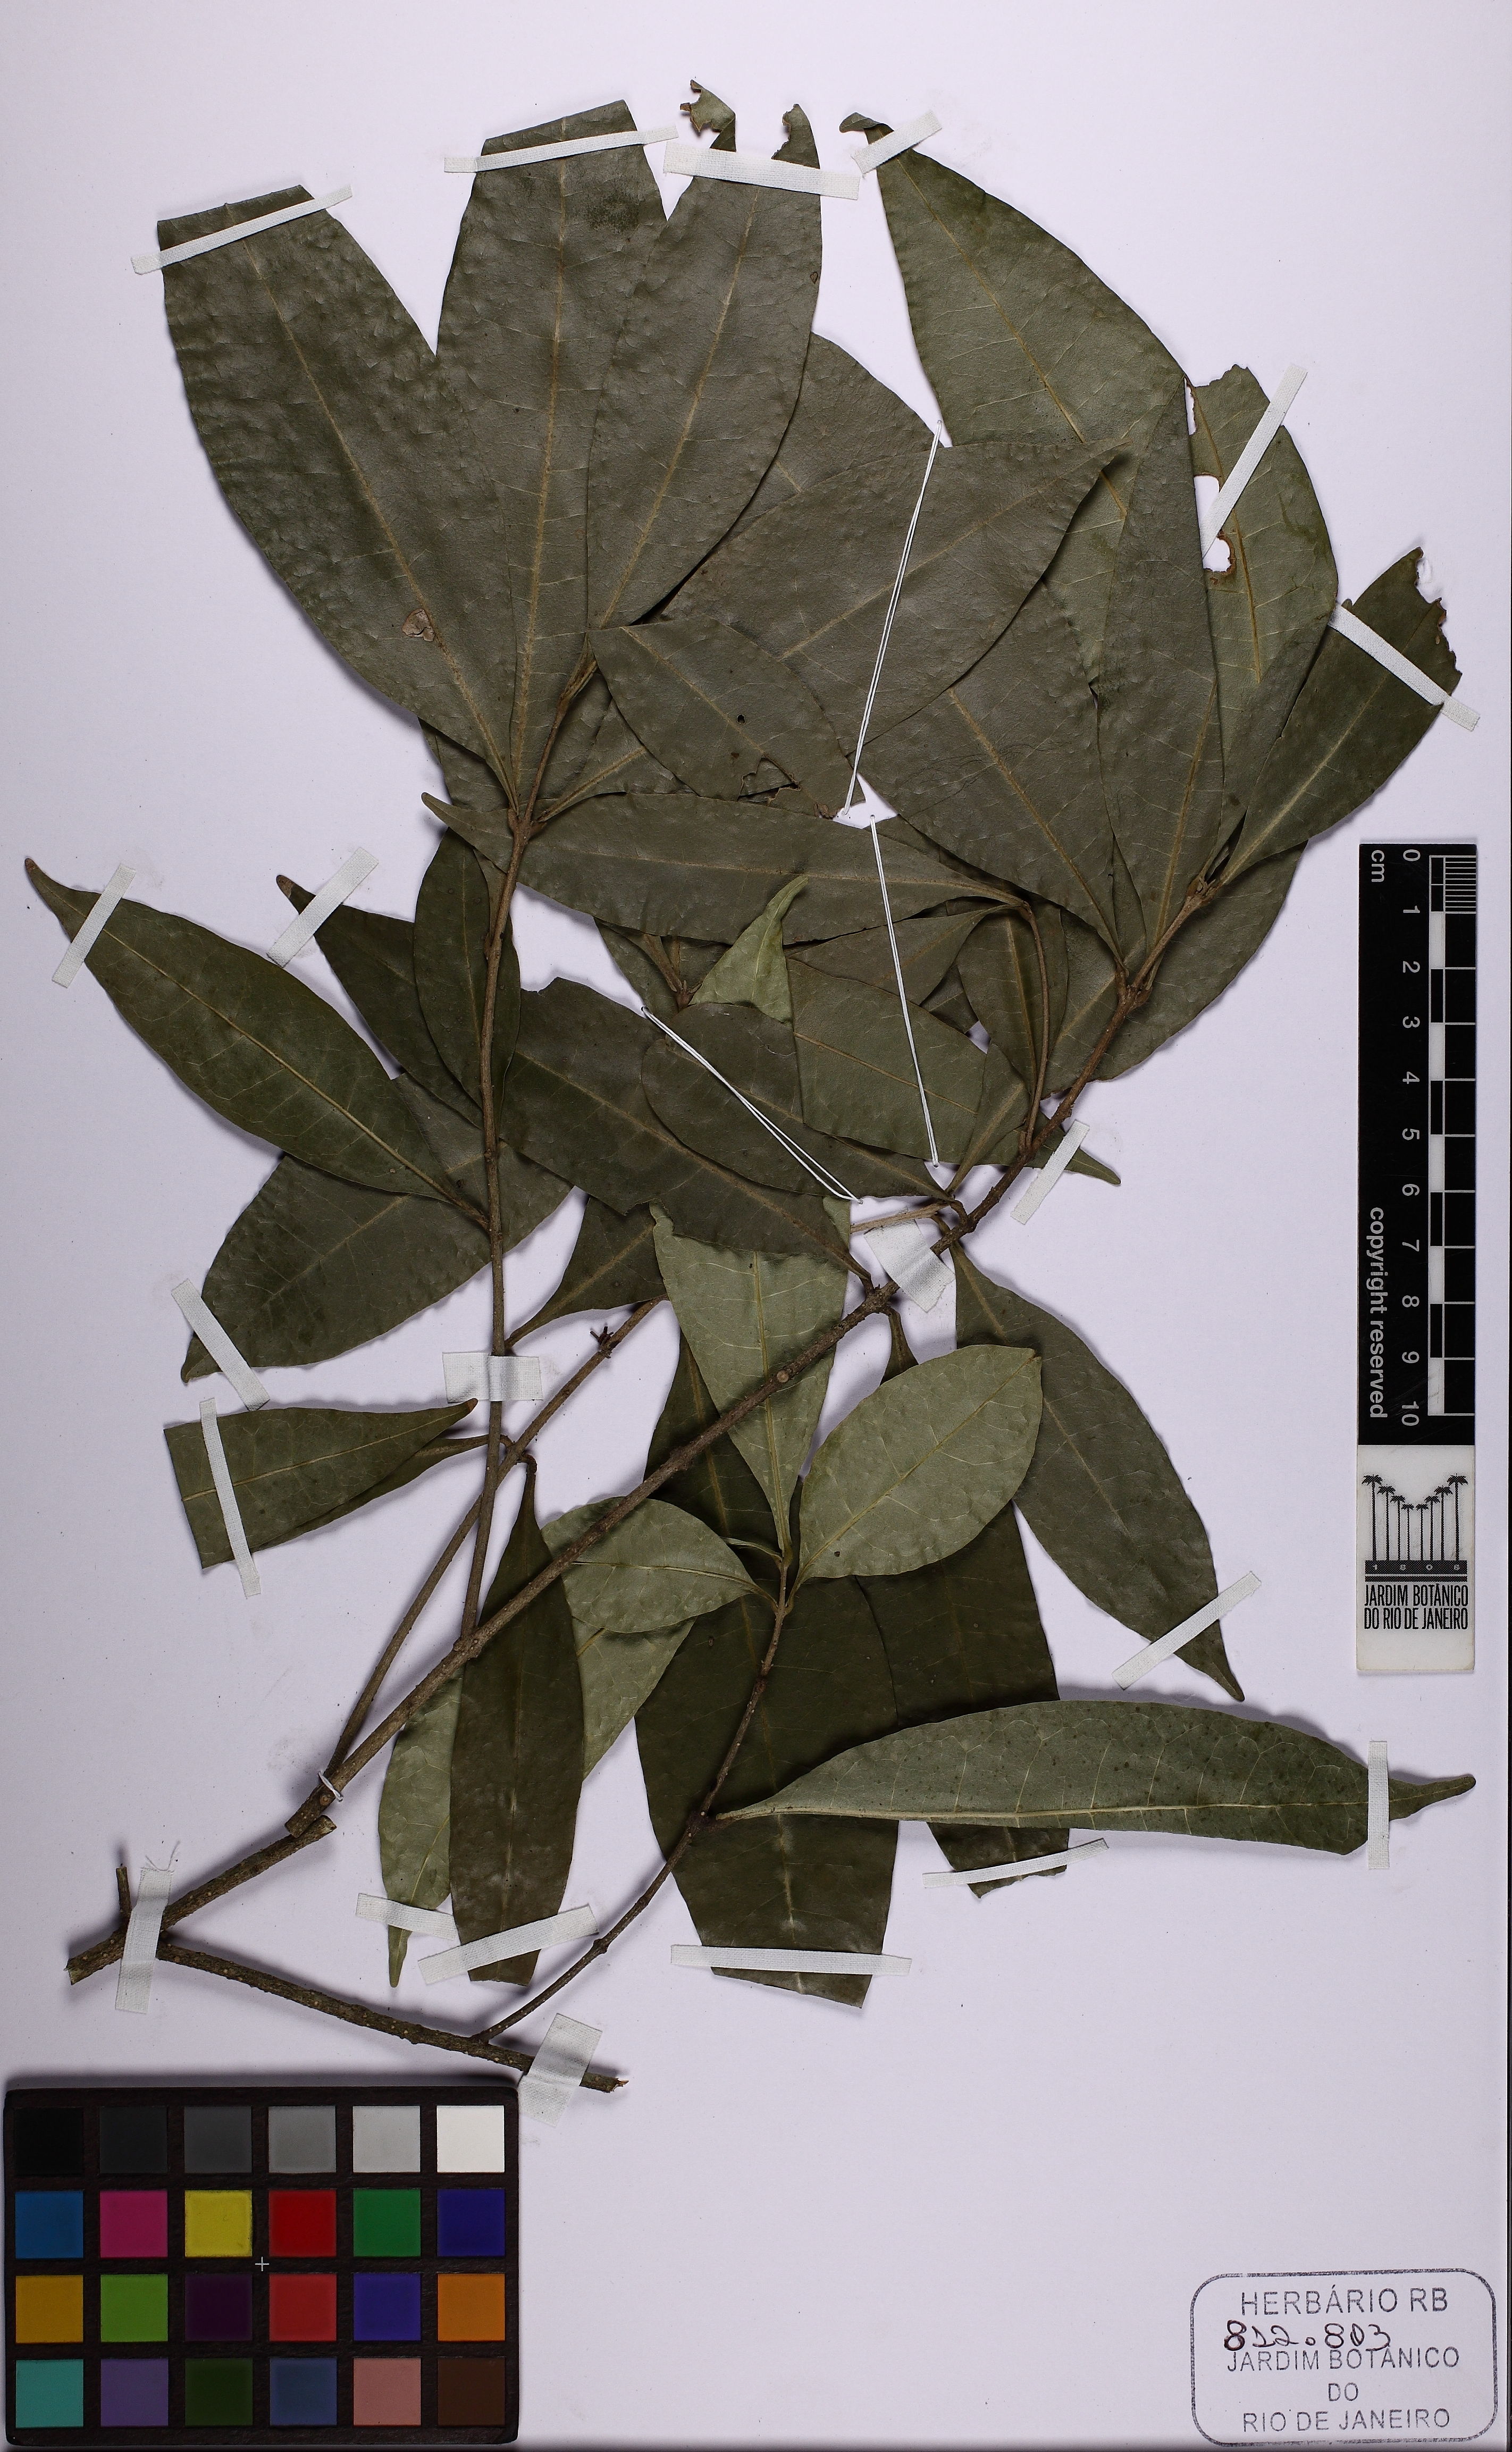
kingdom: Plantae
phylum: Tracheophyta
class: Magnoliopsida
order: Lamiales
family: Oleaceae
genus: Chionanthus
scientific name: Chionanthus micranthus
